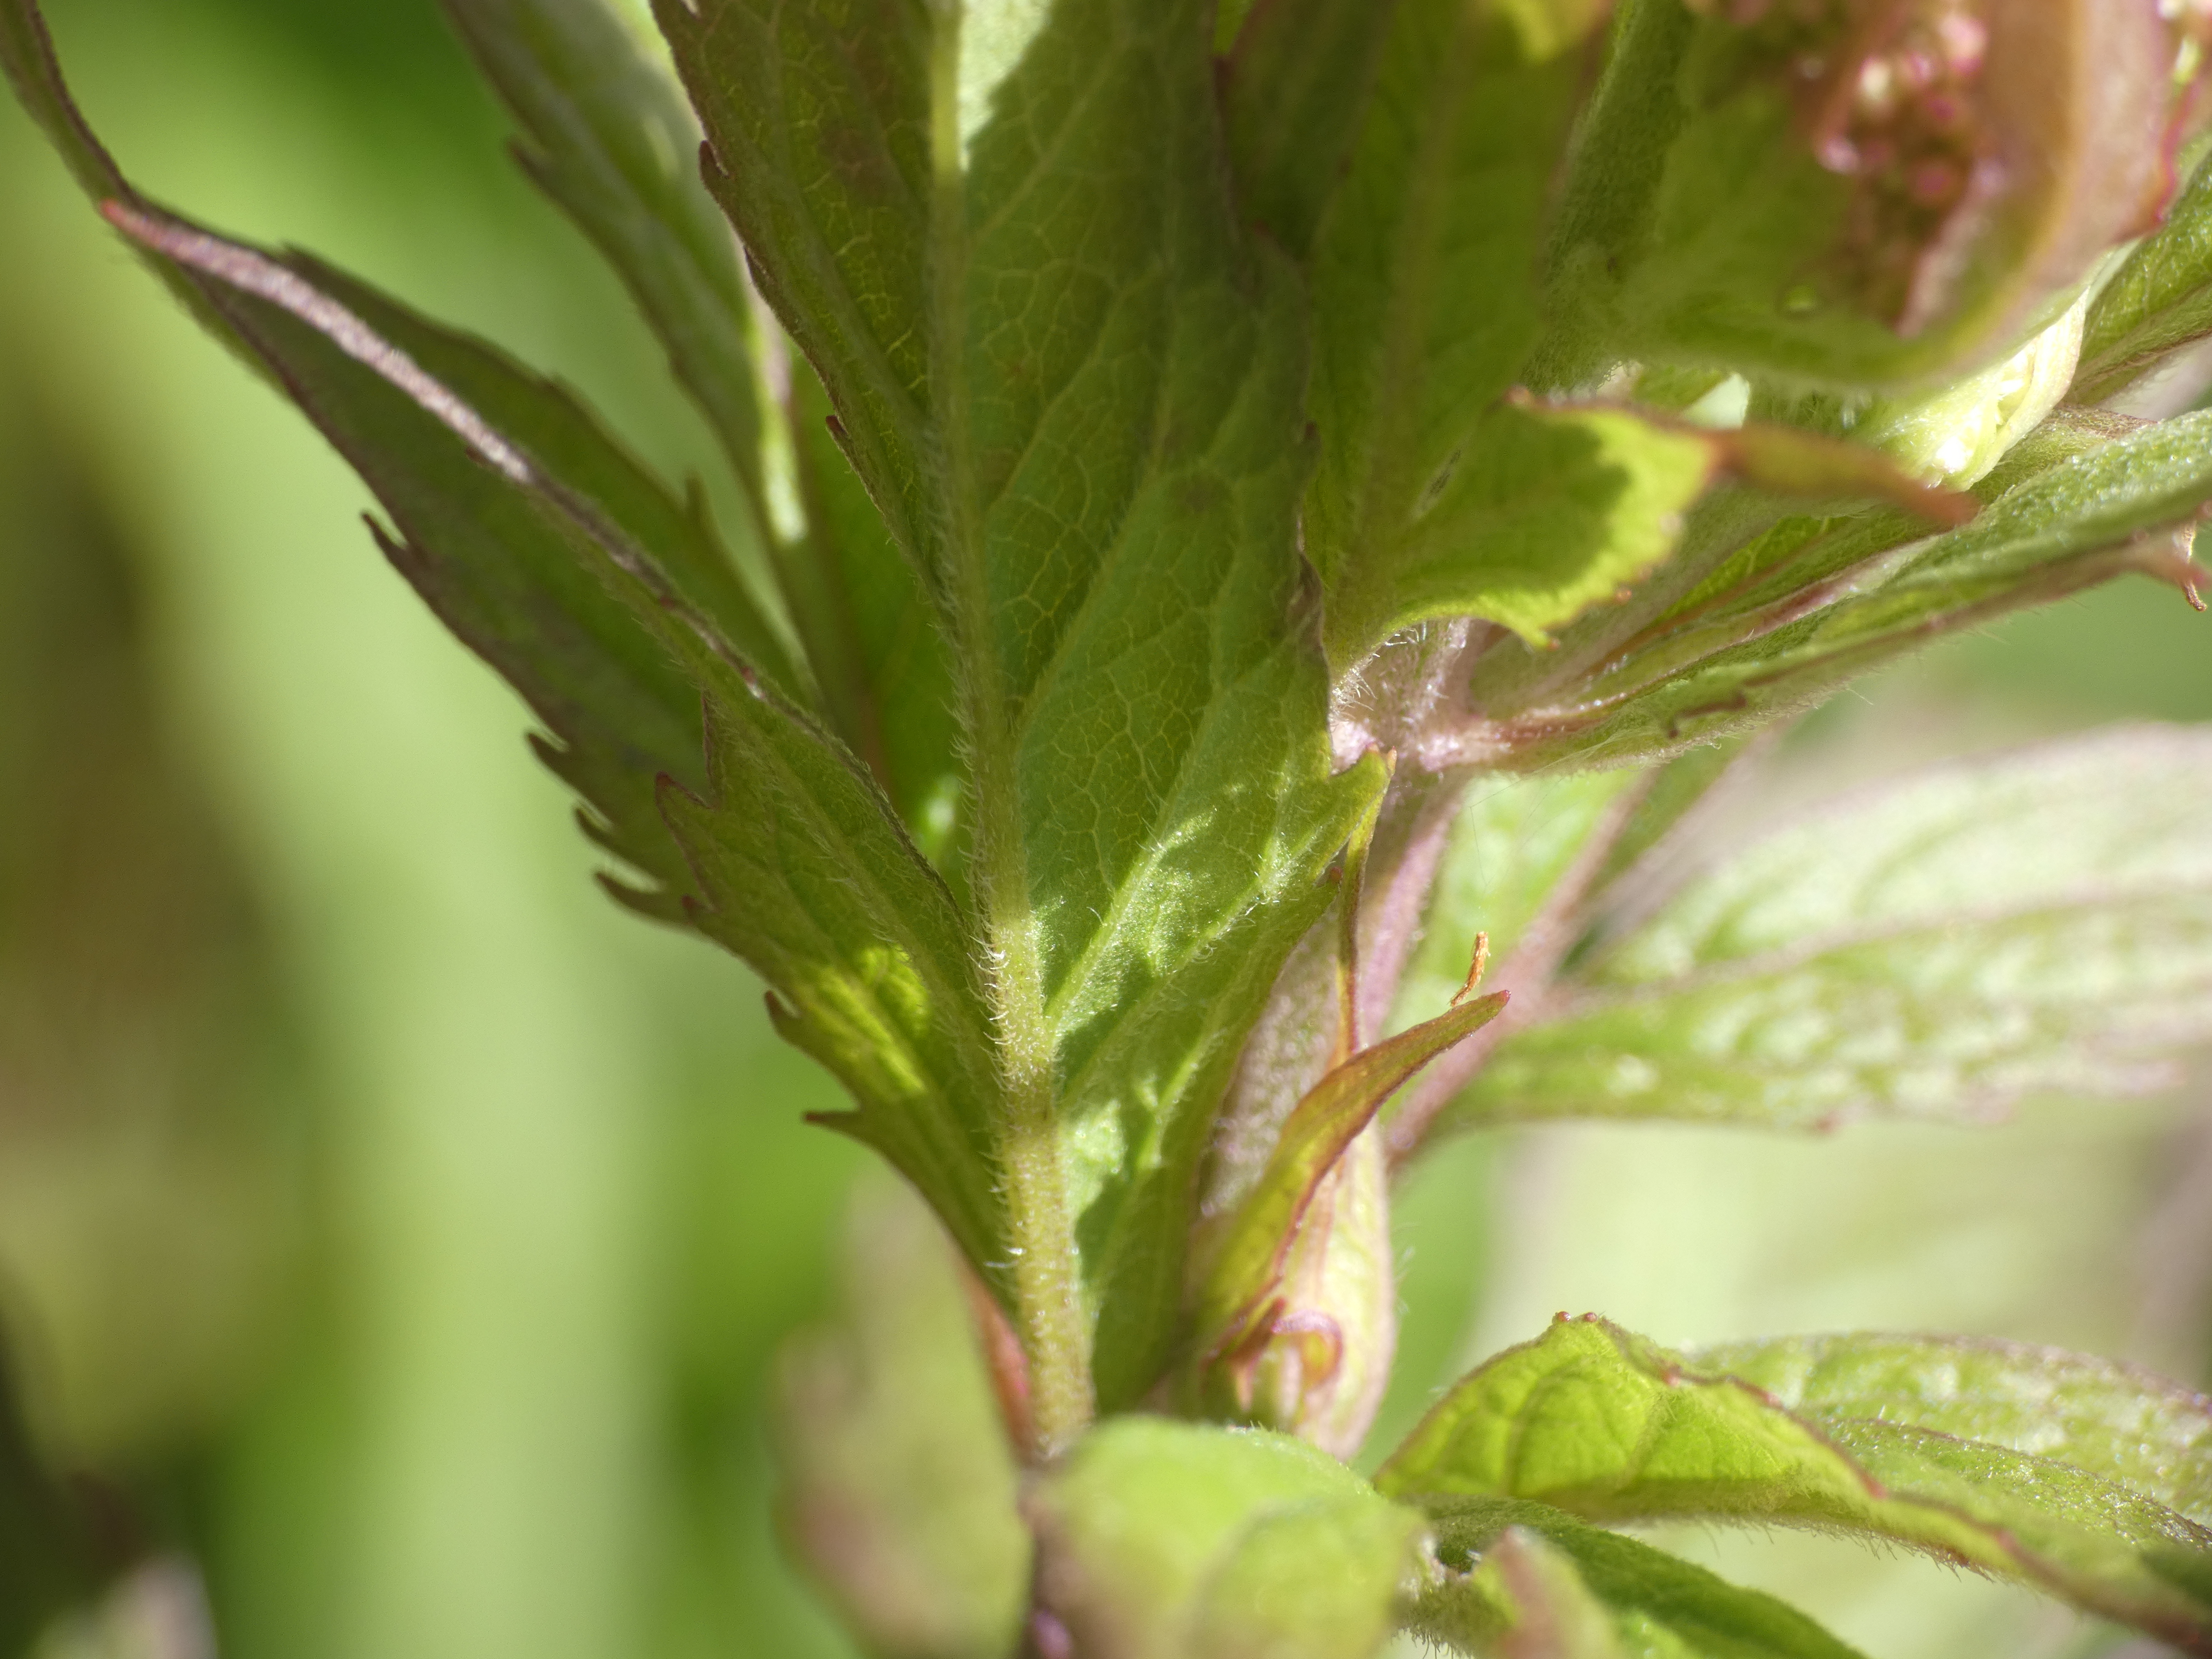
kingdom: Plantae
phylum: Tracheophyta
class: Magnoliopsida
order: Asterales
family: Asteraceae
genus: Eupatorium
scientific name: Eupatorium cannabinum
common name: Hjortetrøst
